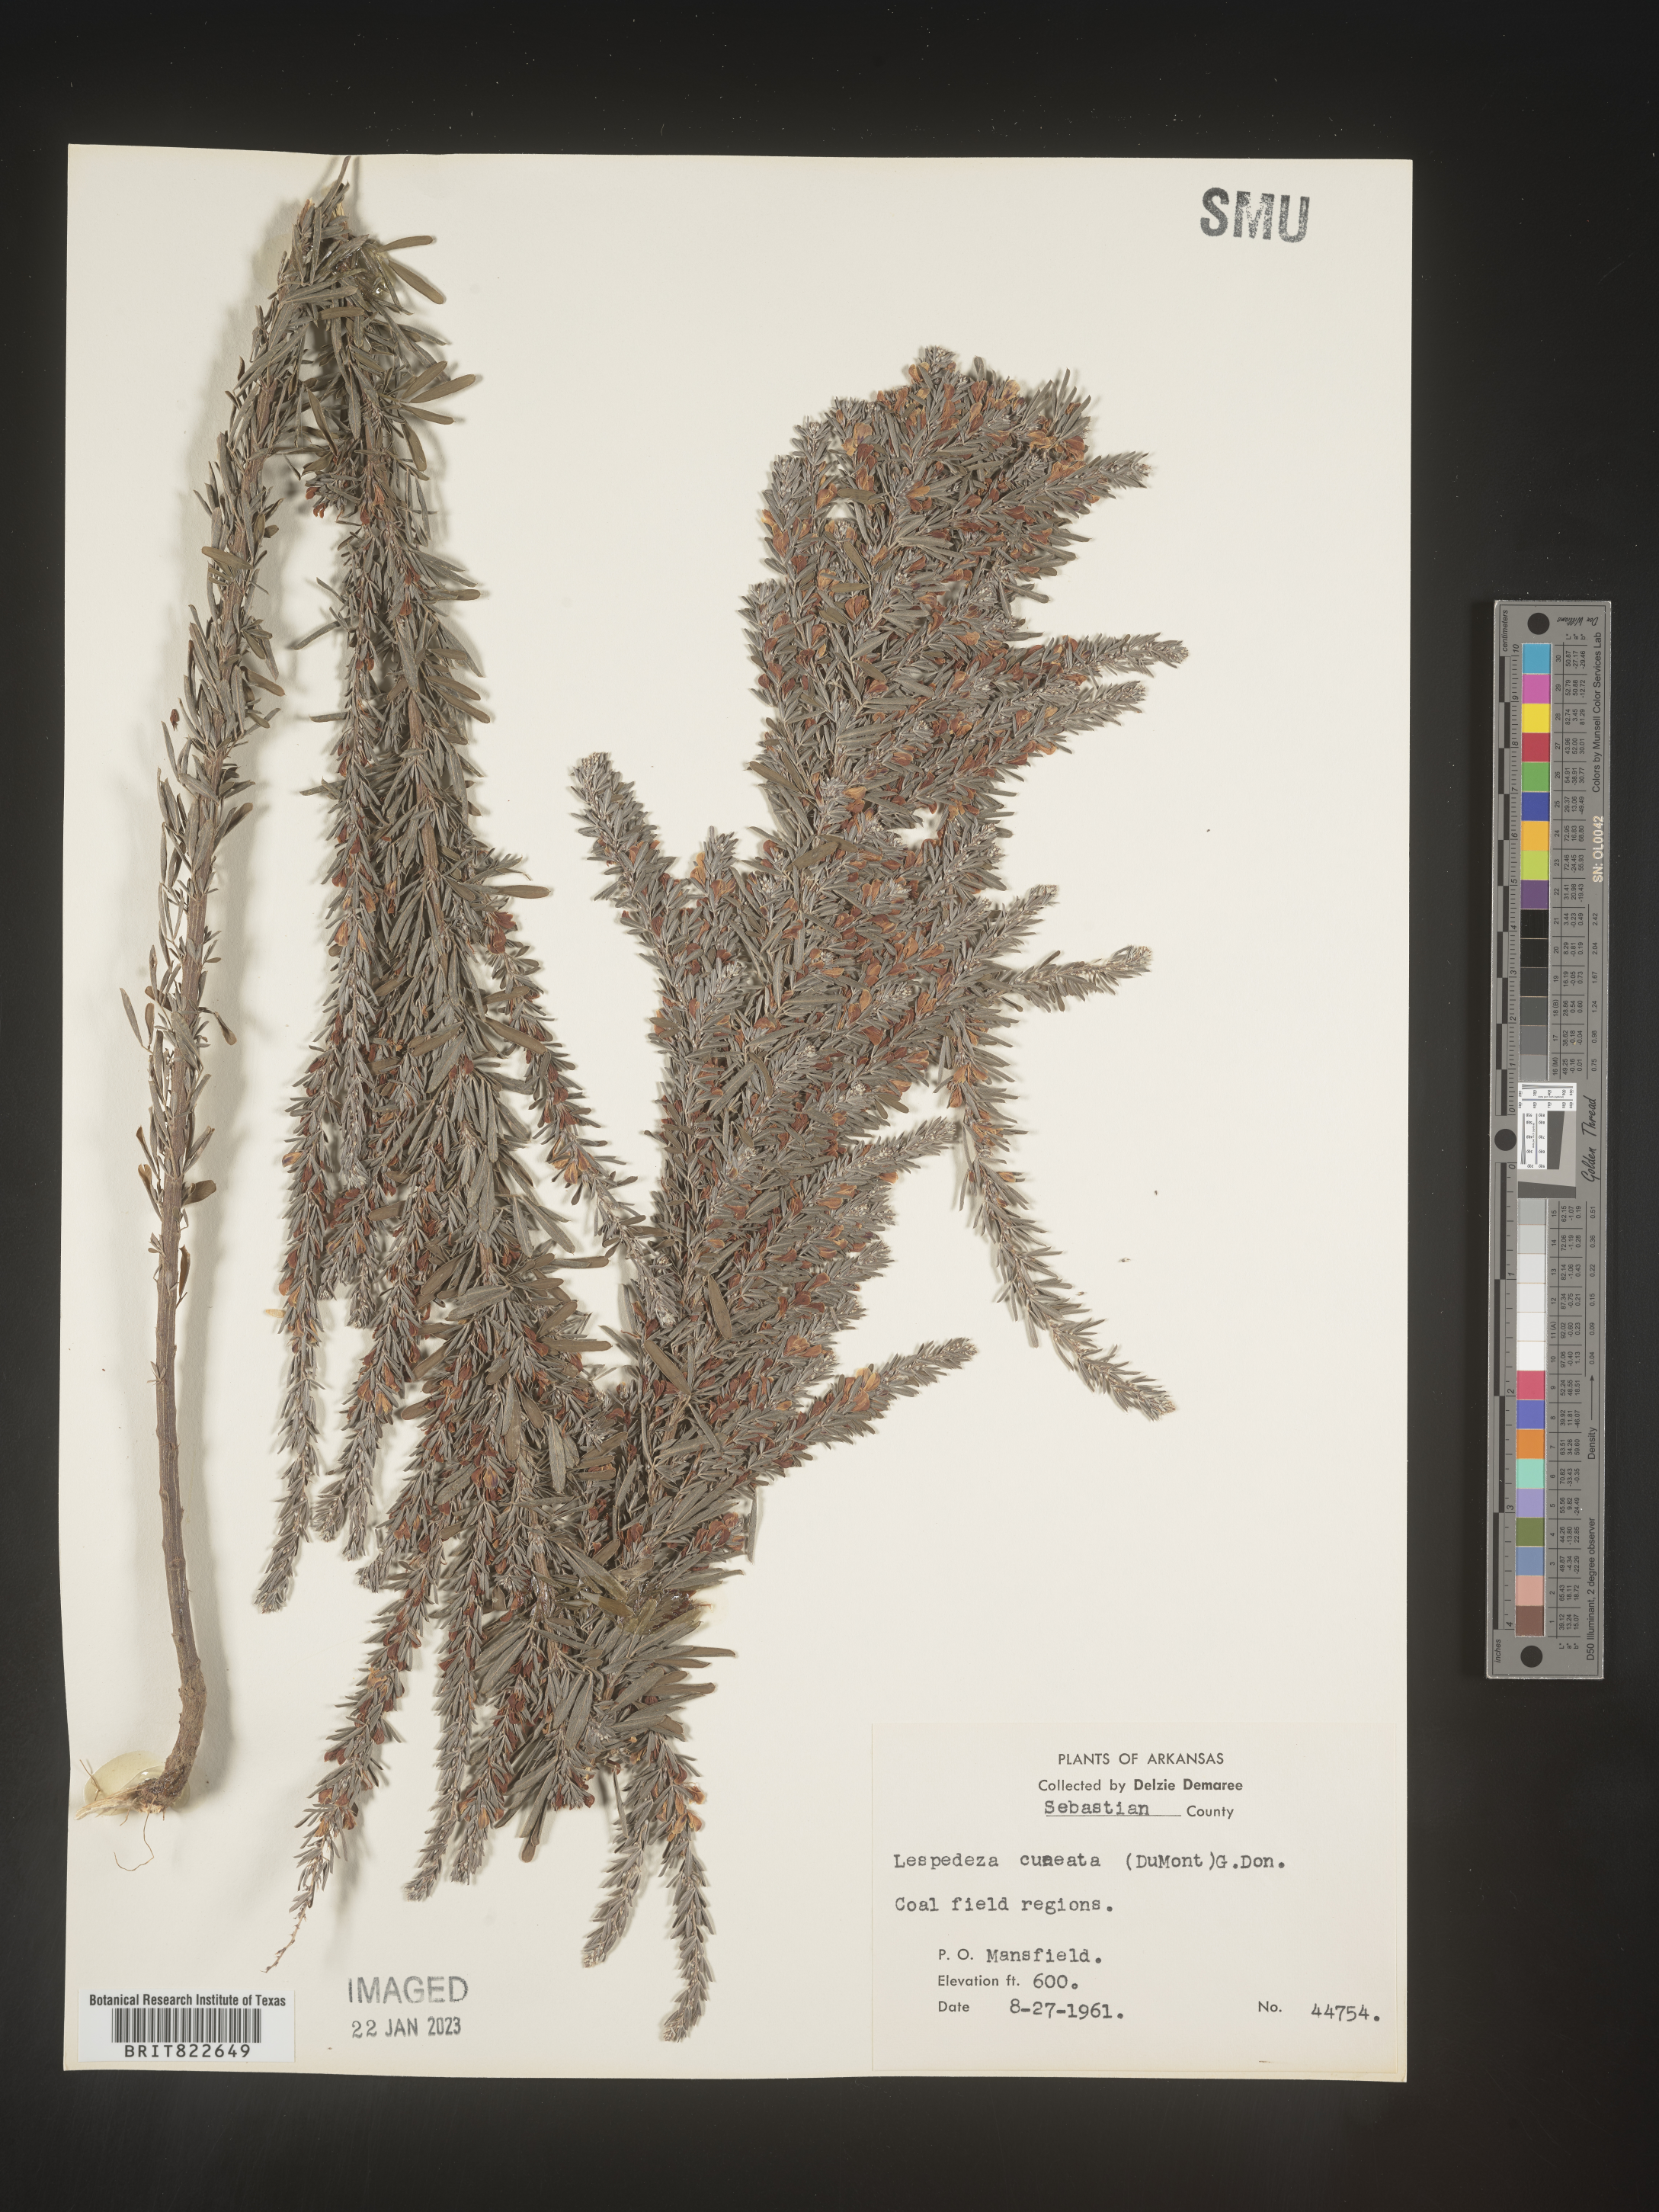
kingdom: Plantae
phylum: Tracheophyta
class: Magnoliopsida
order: Fabales
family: Fabaceae
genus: Lespedeza
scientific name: Lespedeza cuneata
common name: Chinese bush-clover
